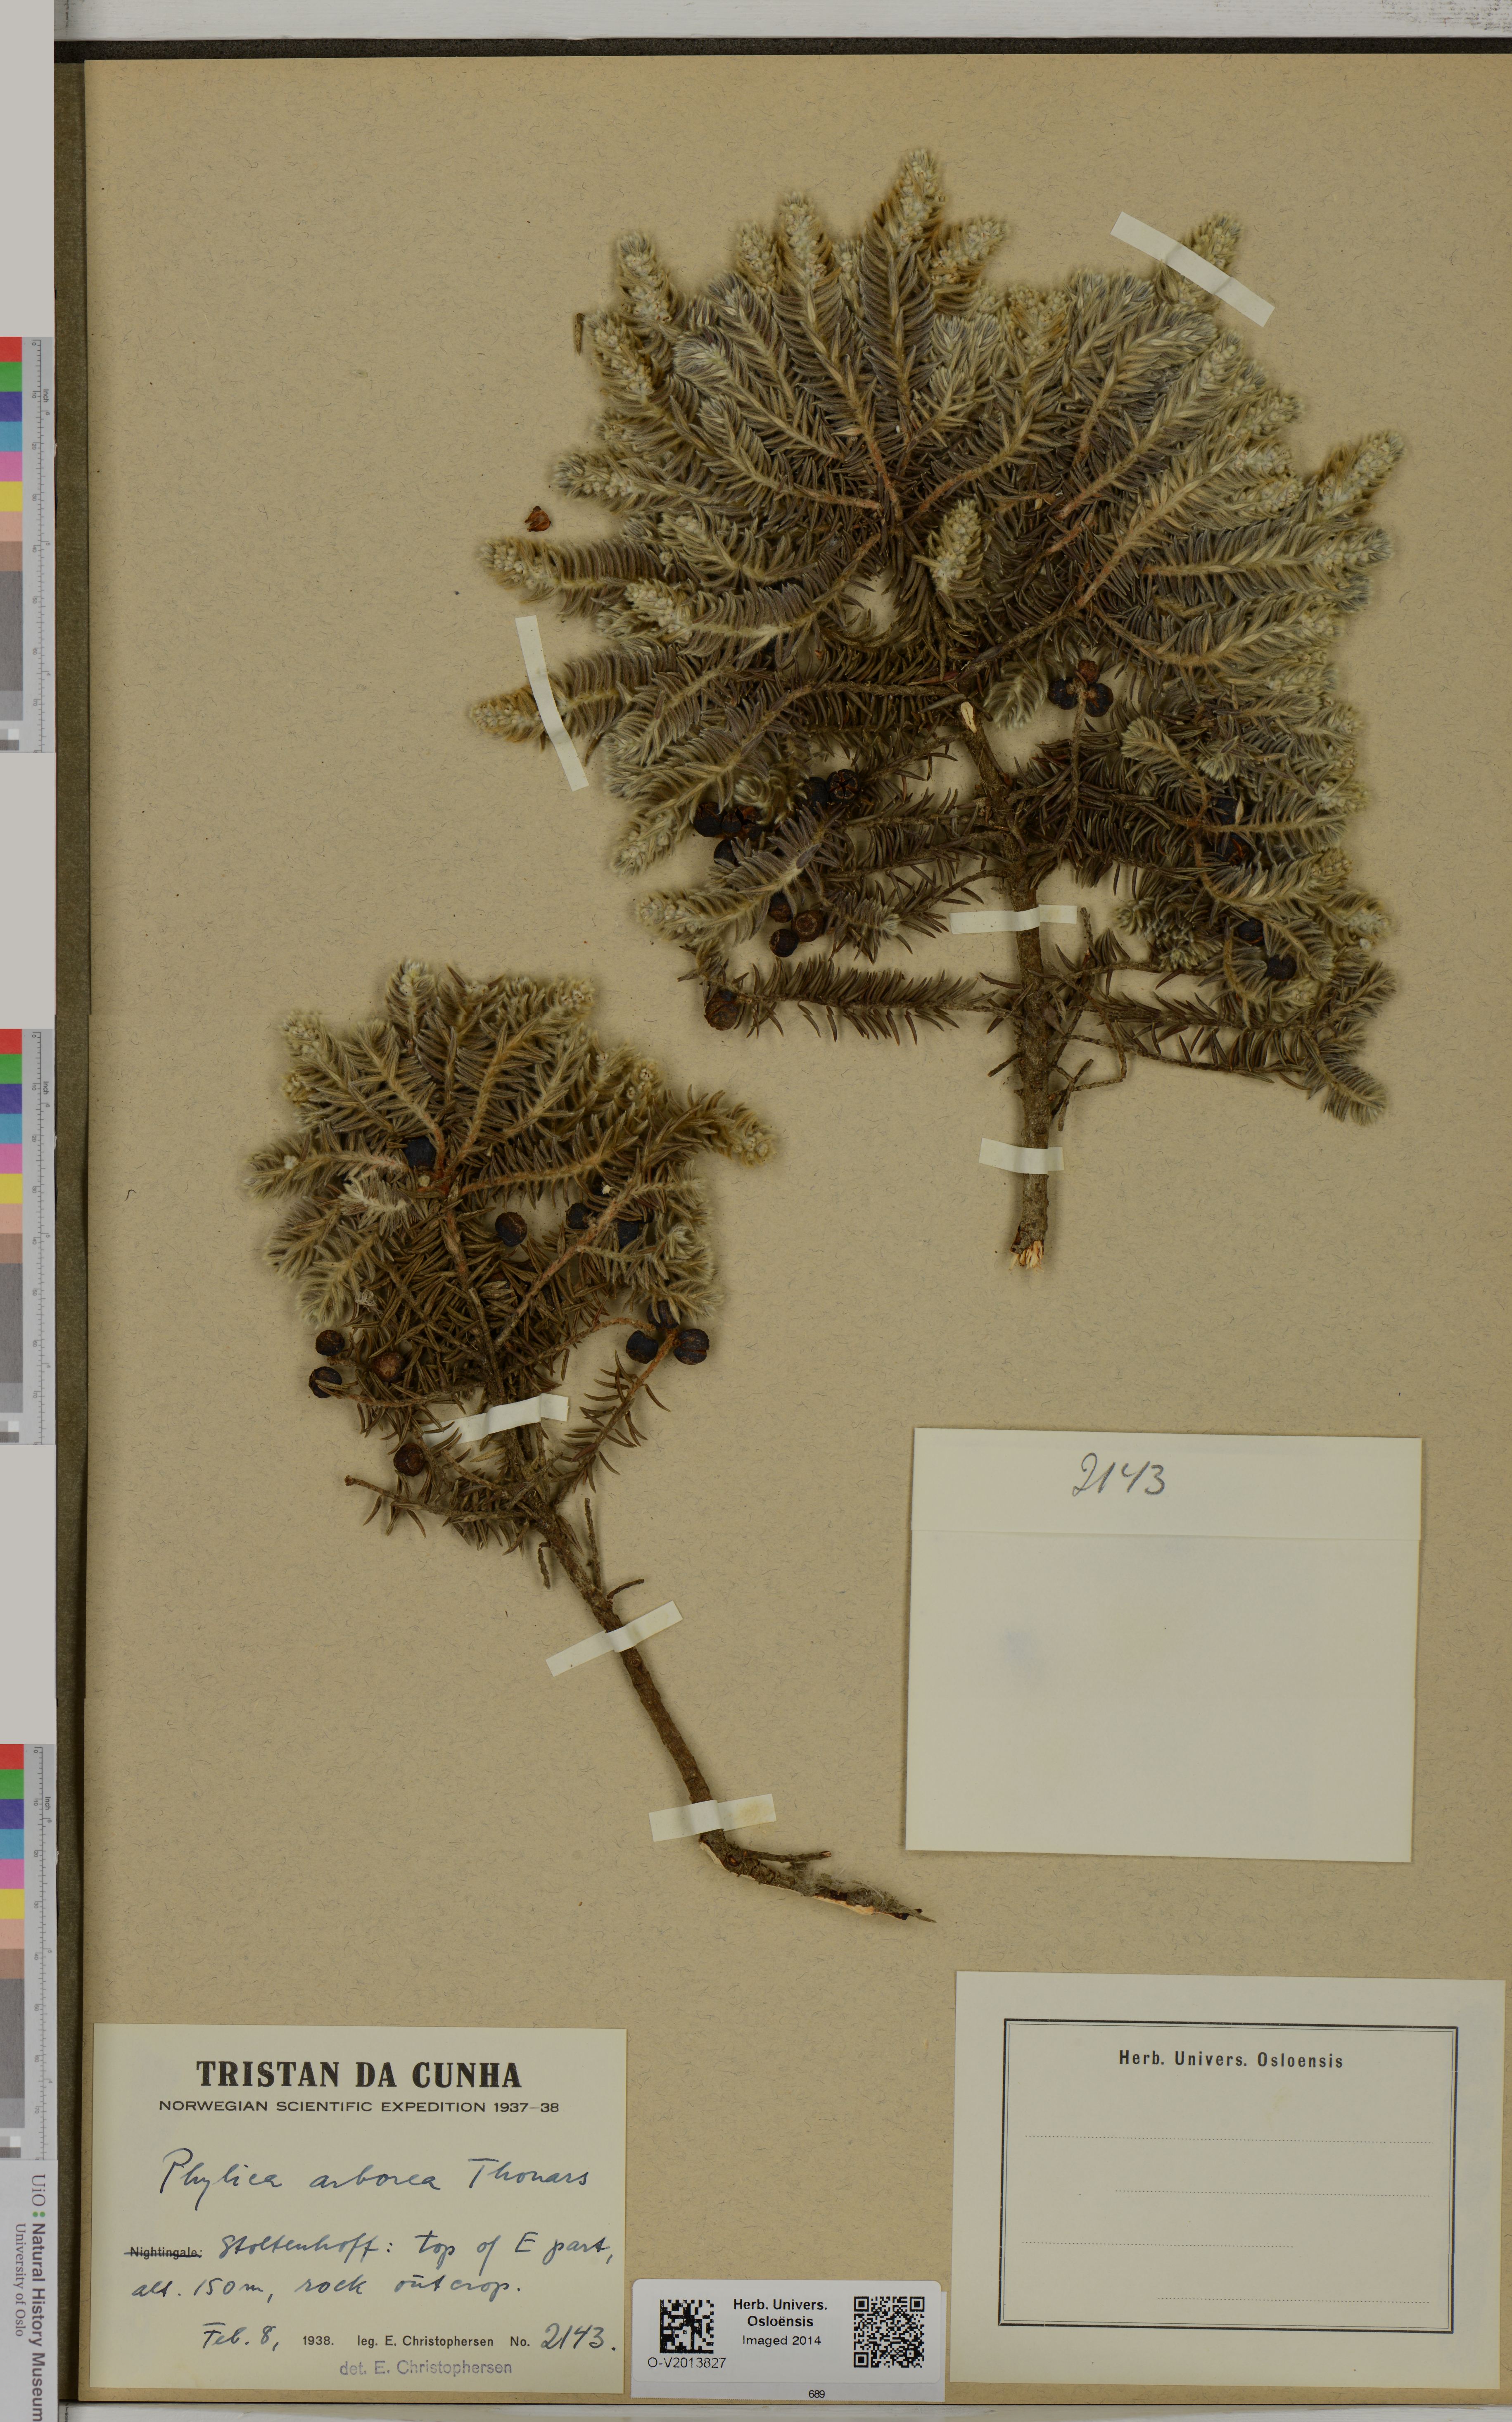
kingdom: Plantae
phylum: Tracheophyta
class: Magnoliopsida
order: Rosales
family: Rhamnaceae
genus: Phylica
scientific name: Phylica arborea
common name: Island cape myrtle
